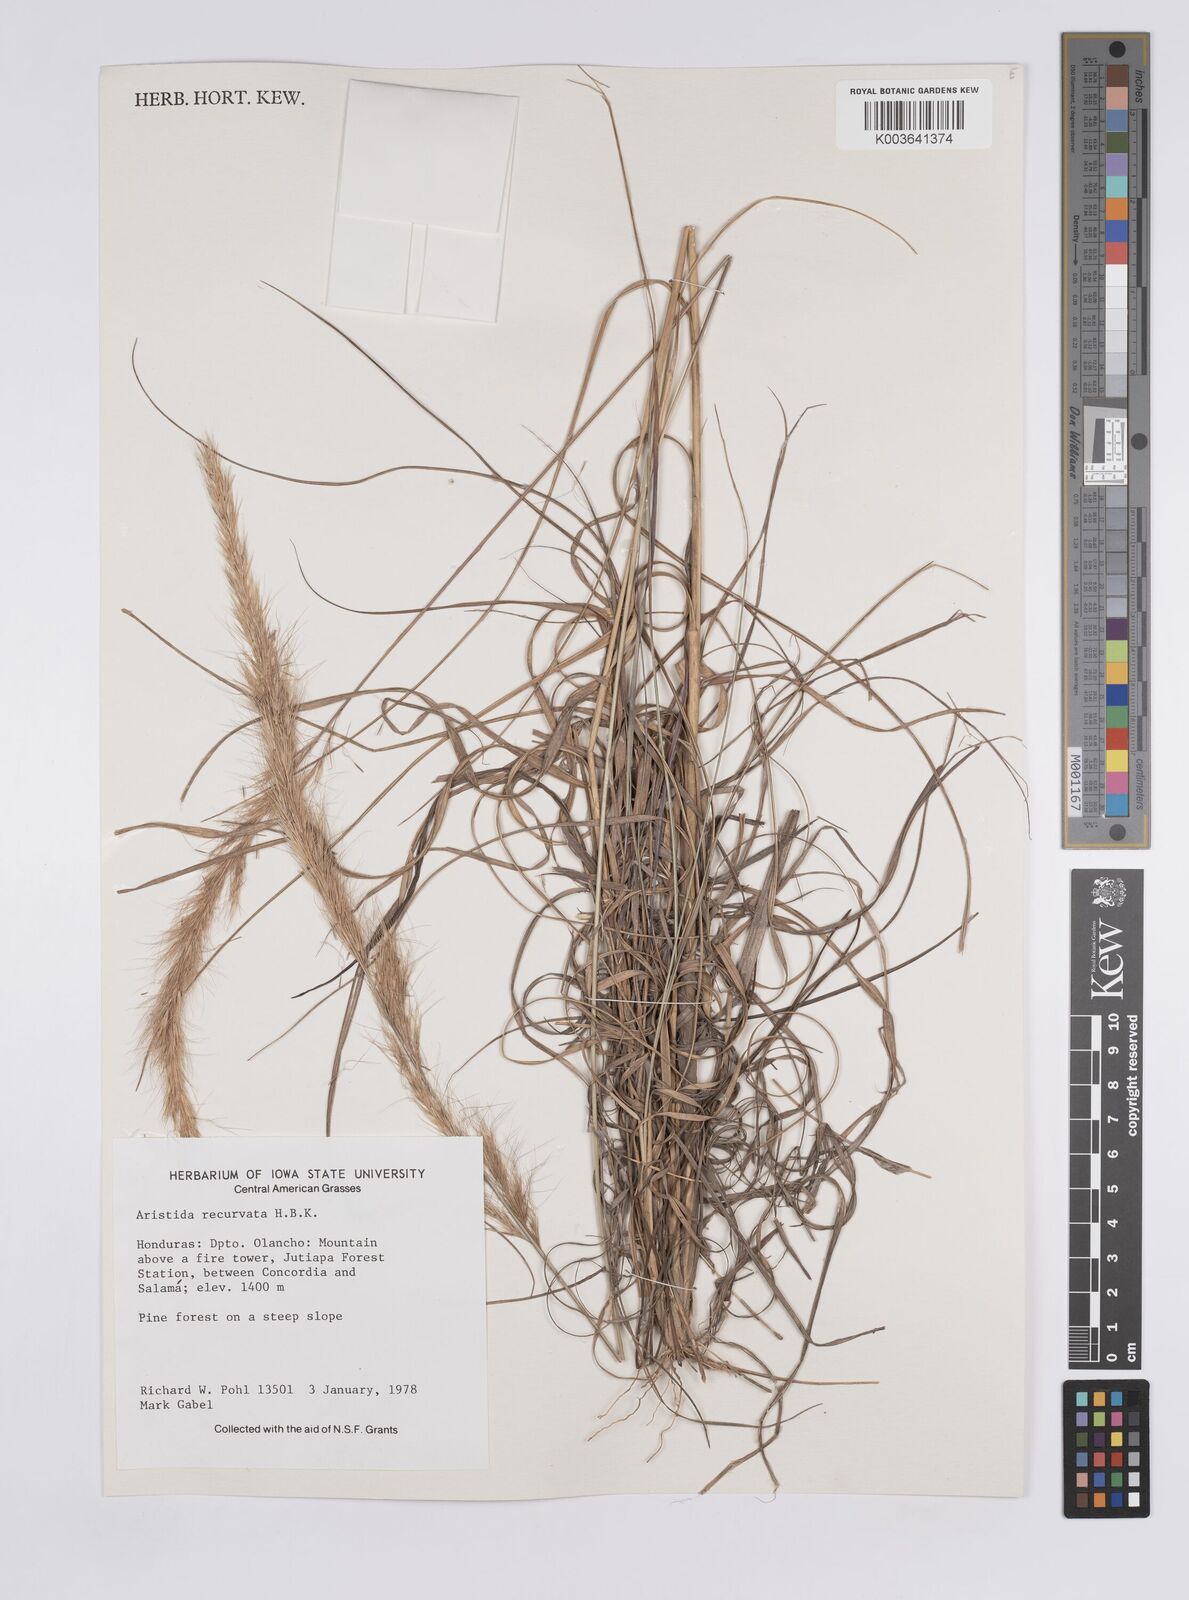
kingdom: Plantae
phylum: Tracheophyta
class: Liliopsida
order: Poales
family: Poaceae
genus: Aristida
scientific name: Aristida recurvata
